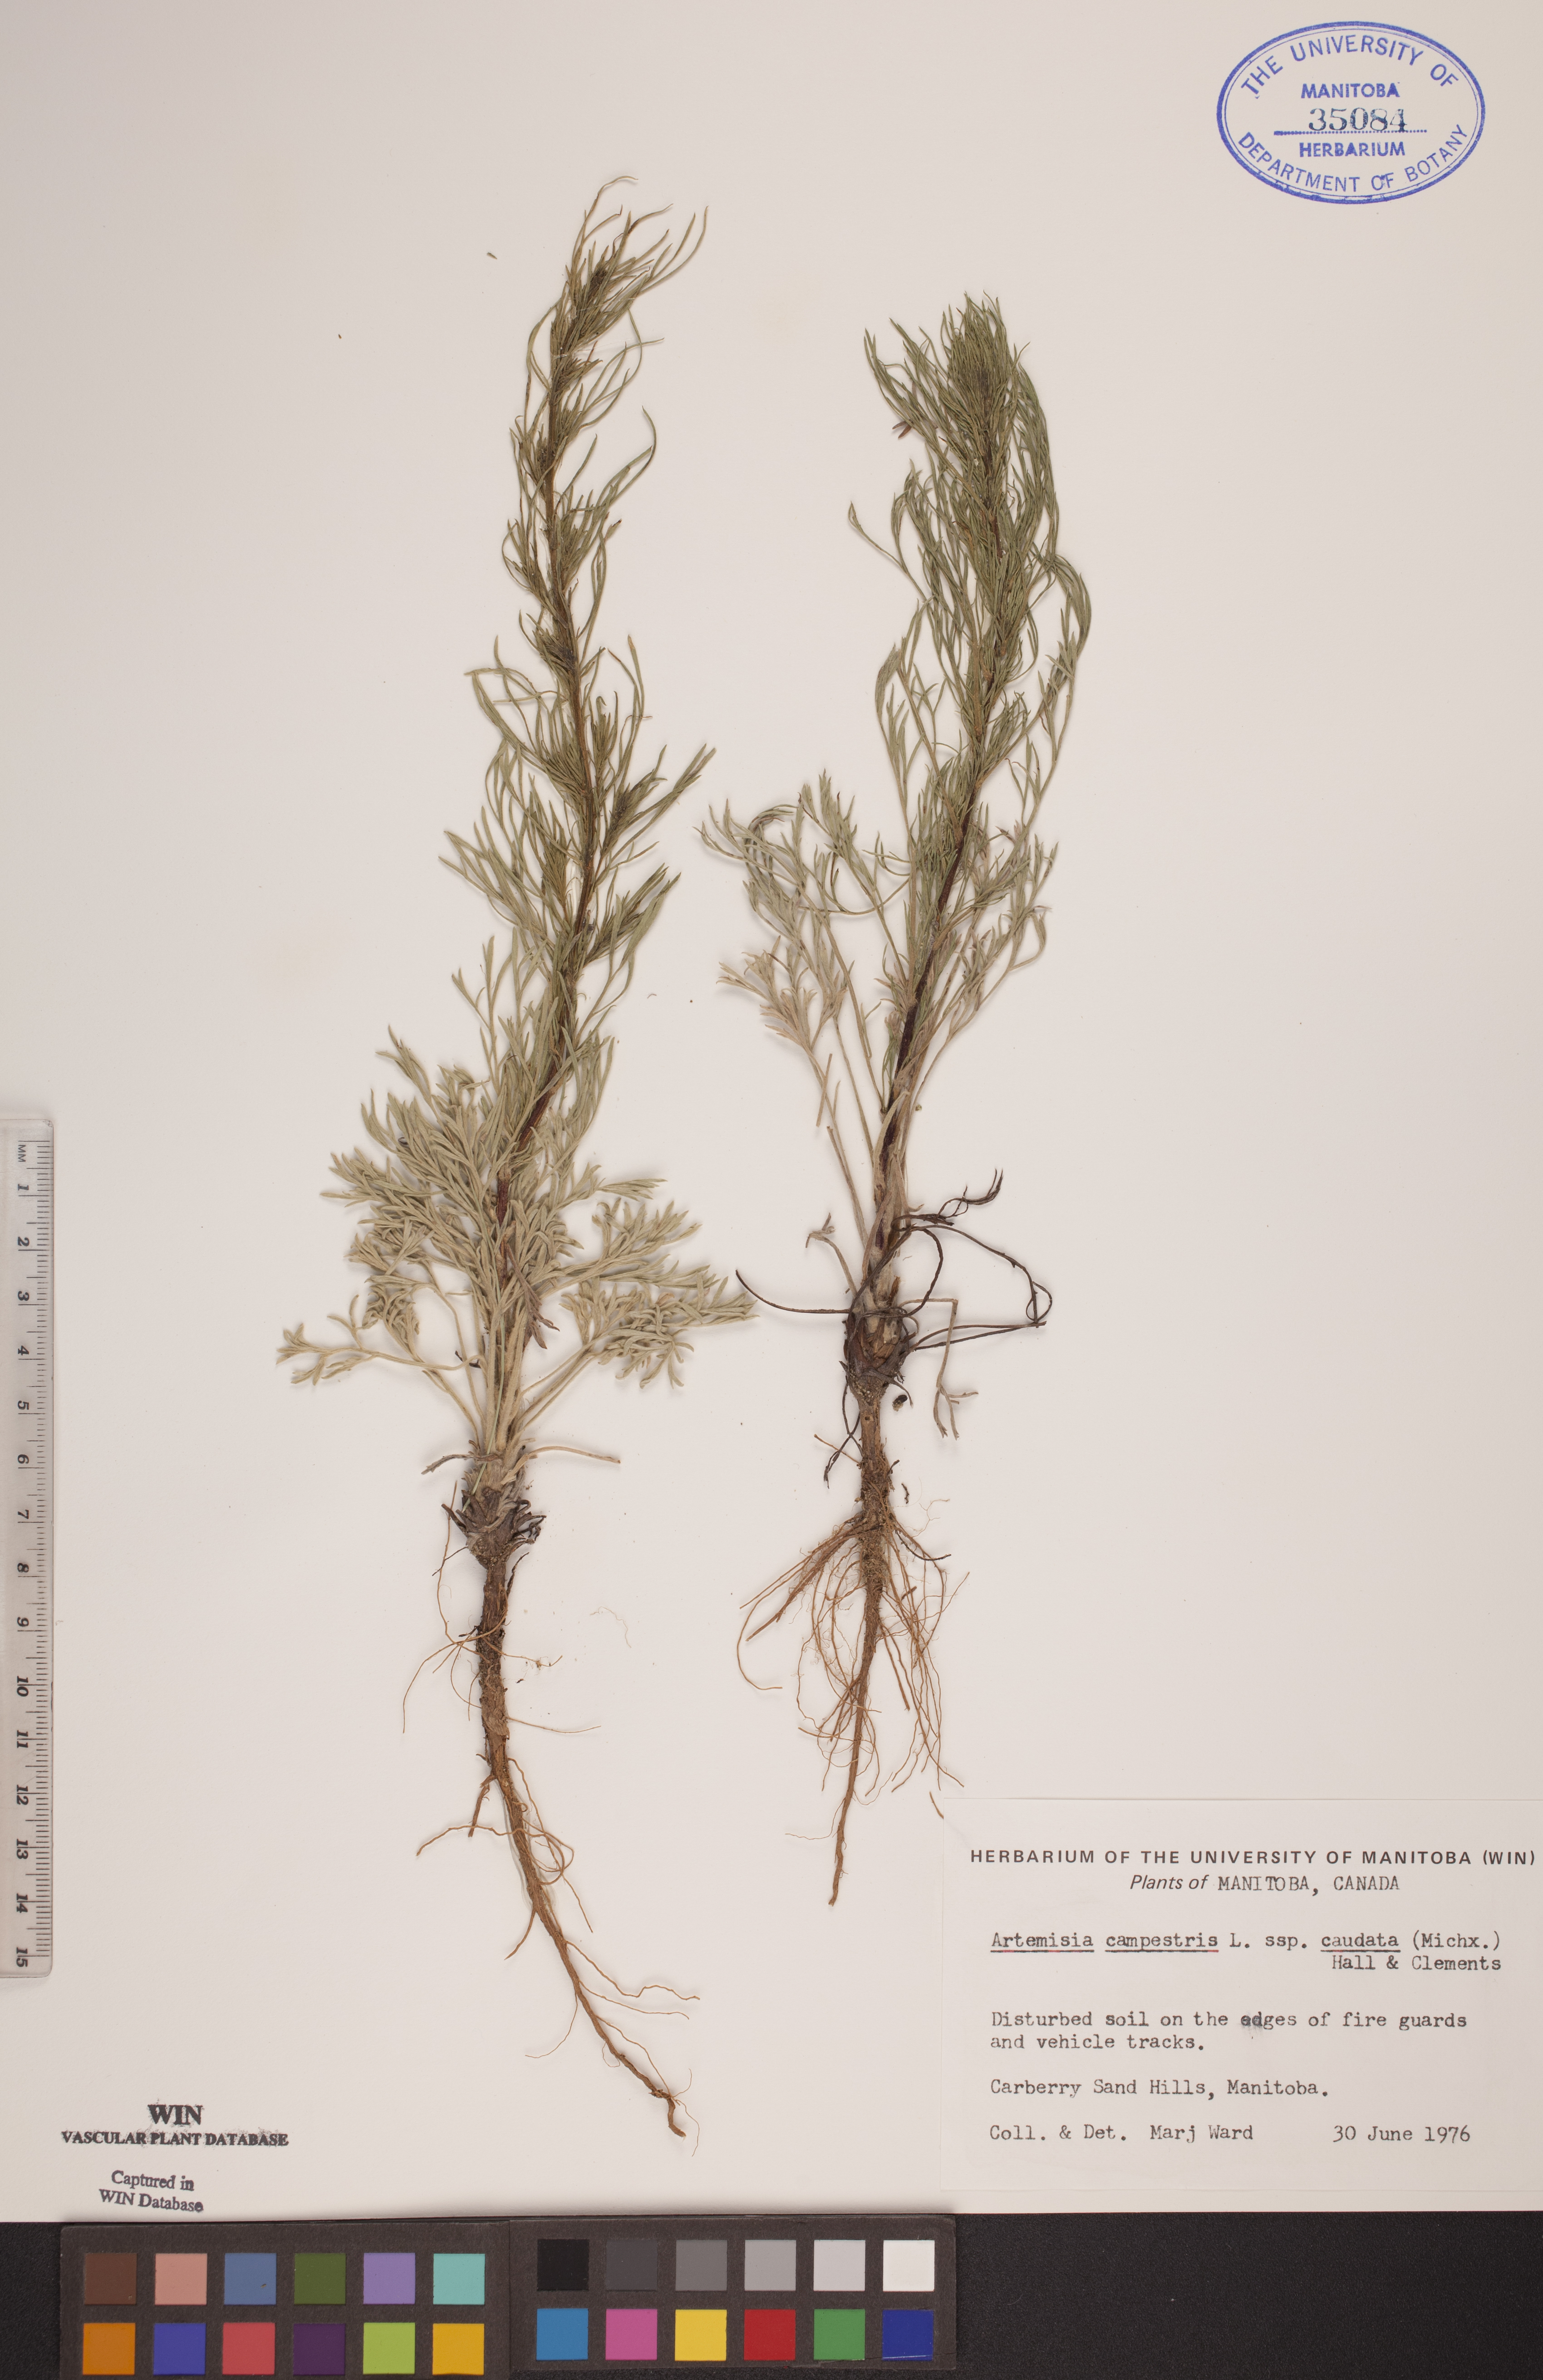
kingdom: Plantae
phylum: Tracheophyta
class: Magnoliopsida
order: Asterales
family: Asteraceae
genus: Artemisia
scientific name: Artemisia campestris
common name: Field wormwood
